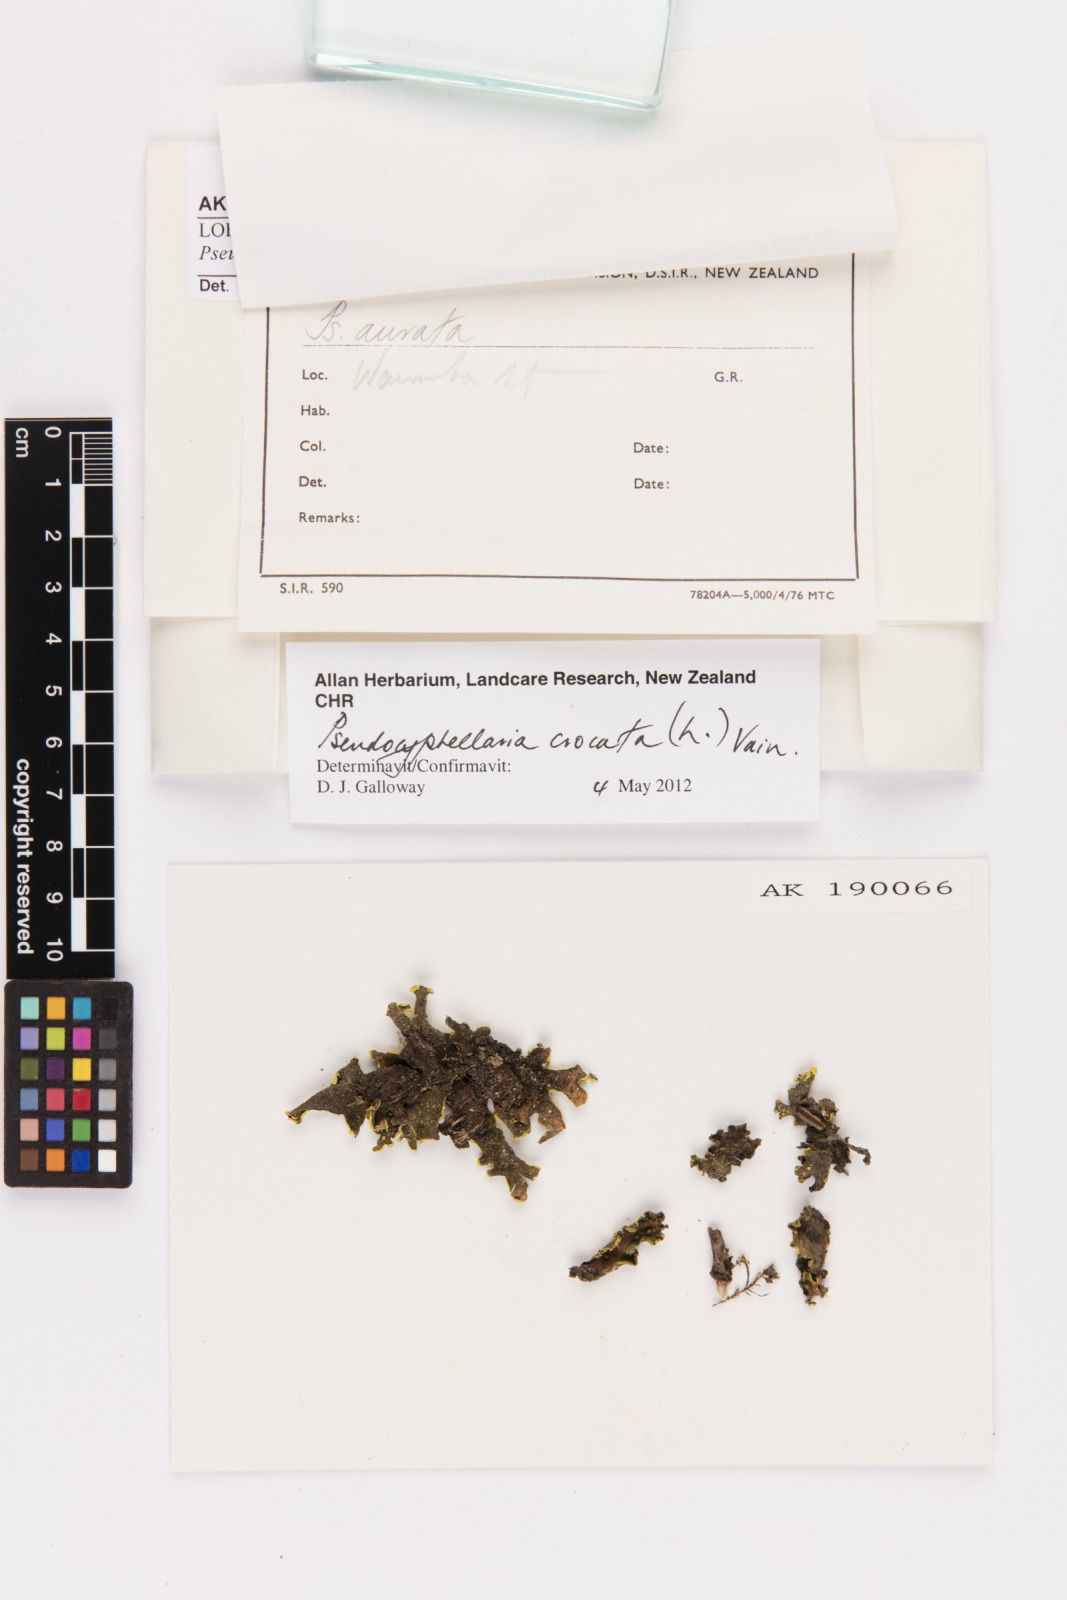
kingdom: Fungi
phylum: Ascomycota
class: Lecanoromycetes
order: Peltigerales
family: Lobariaceae
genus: Pseudocyphellaria
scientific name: Pseudocyphellaria crocata
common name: Golden specklebelly
